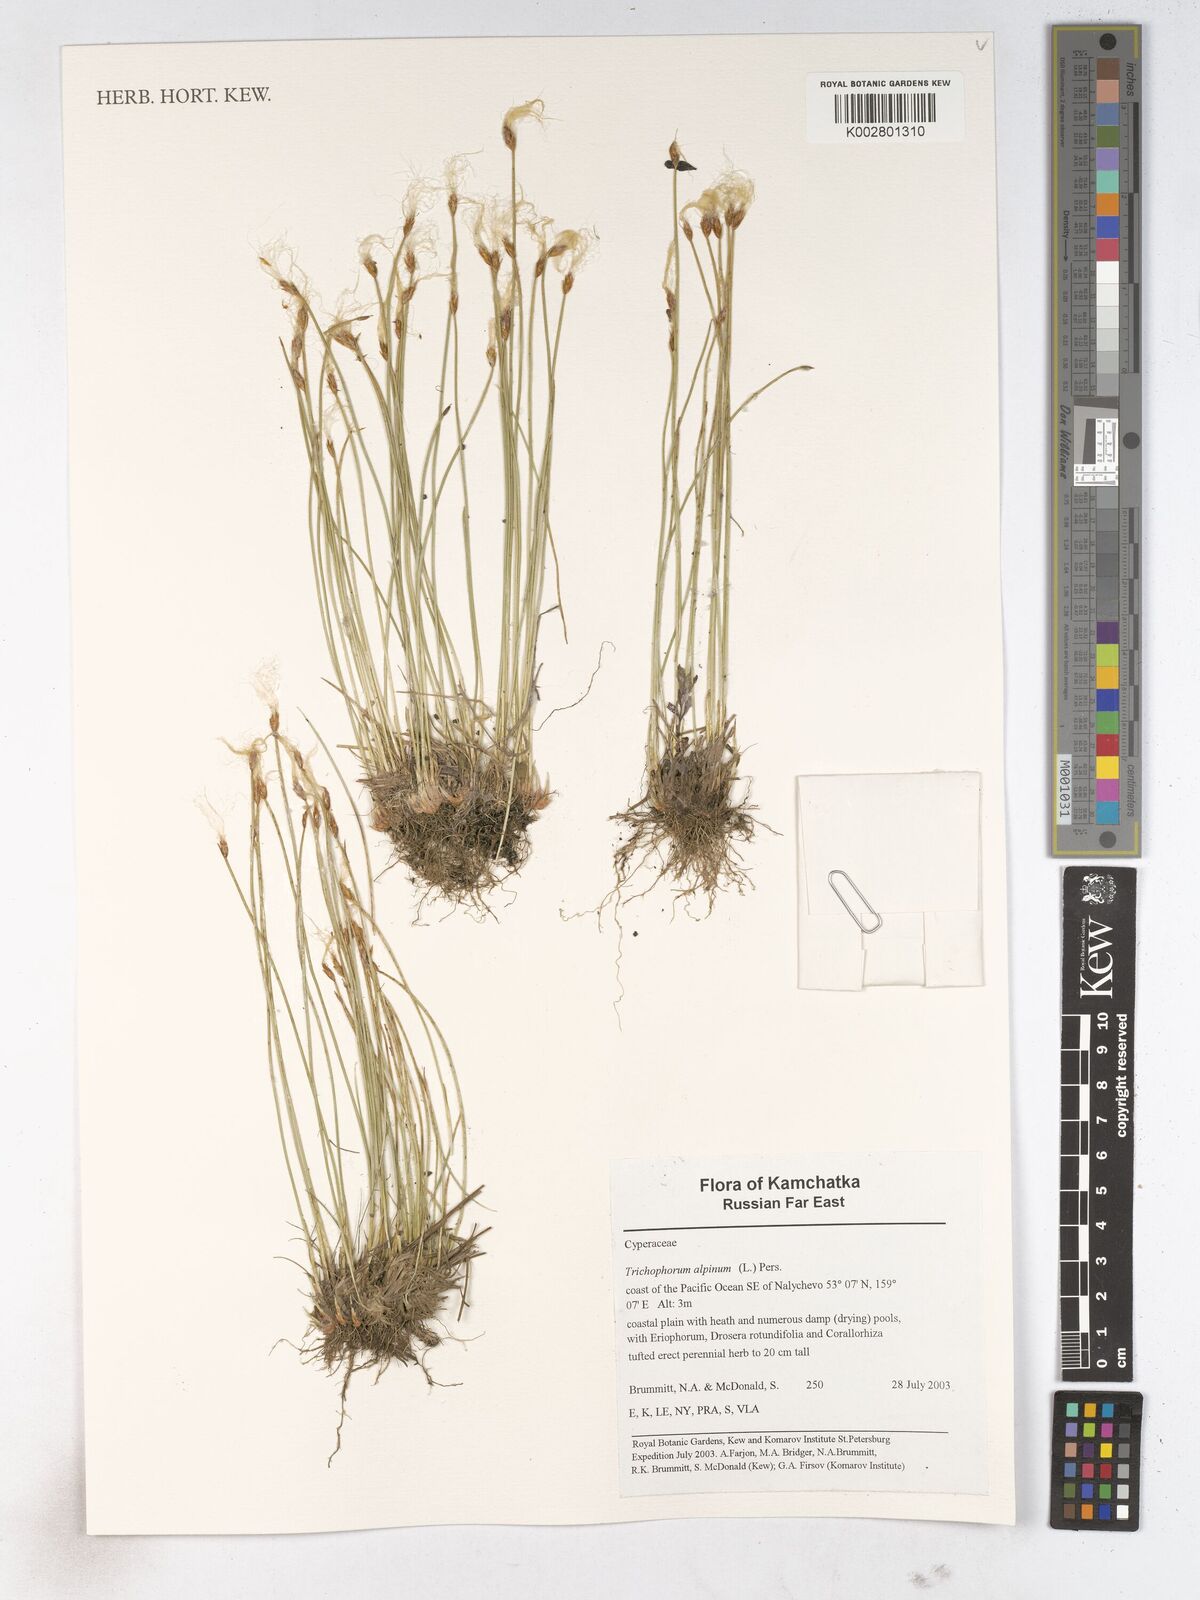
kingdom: Plantae
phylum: Tracheophyta
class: Liliopsida
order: Poales
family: Cyperaceae
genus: Trichophorum
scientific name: Trichophorum alpinum
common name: Alpine bulrush
